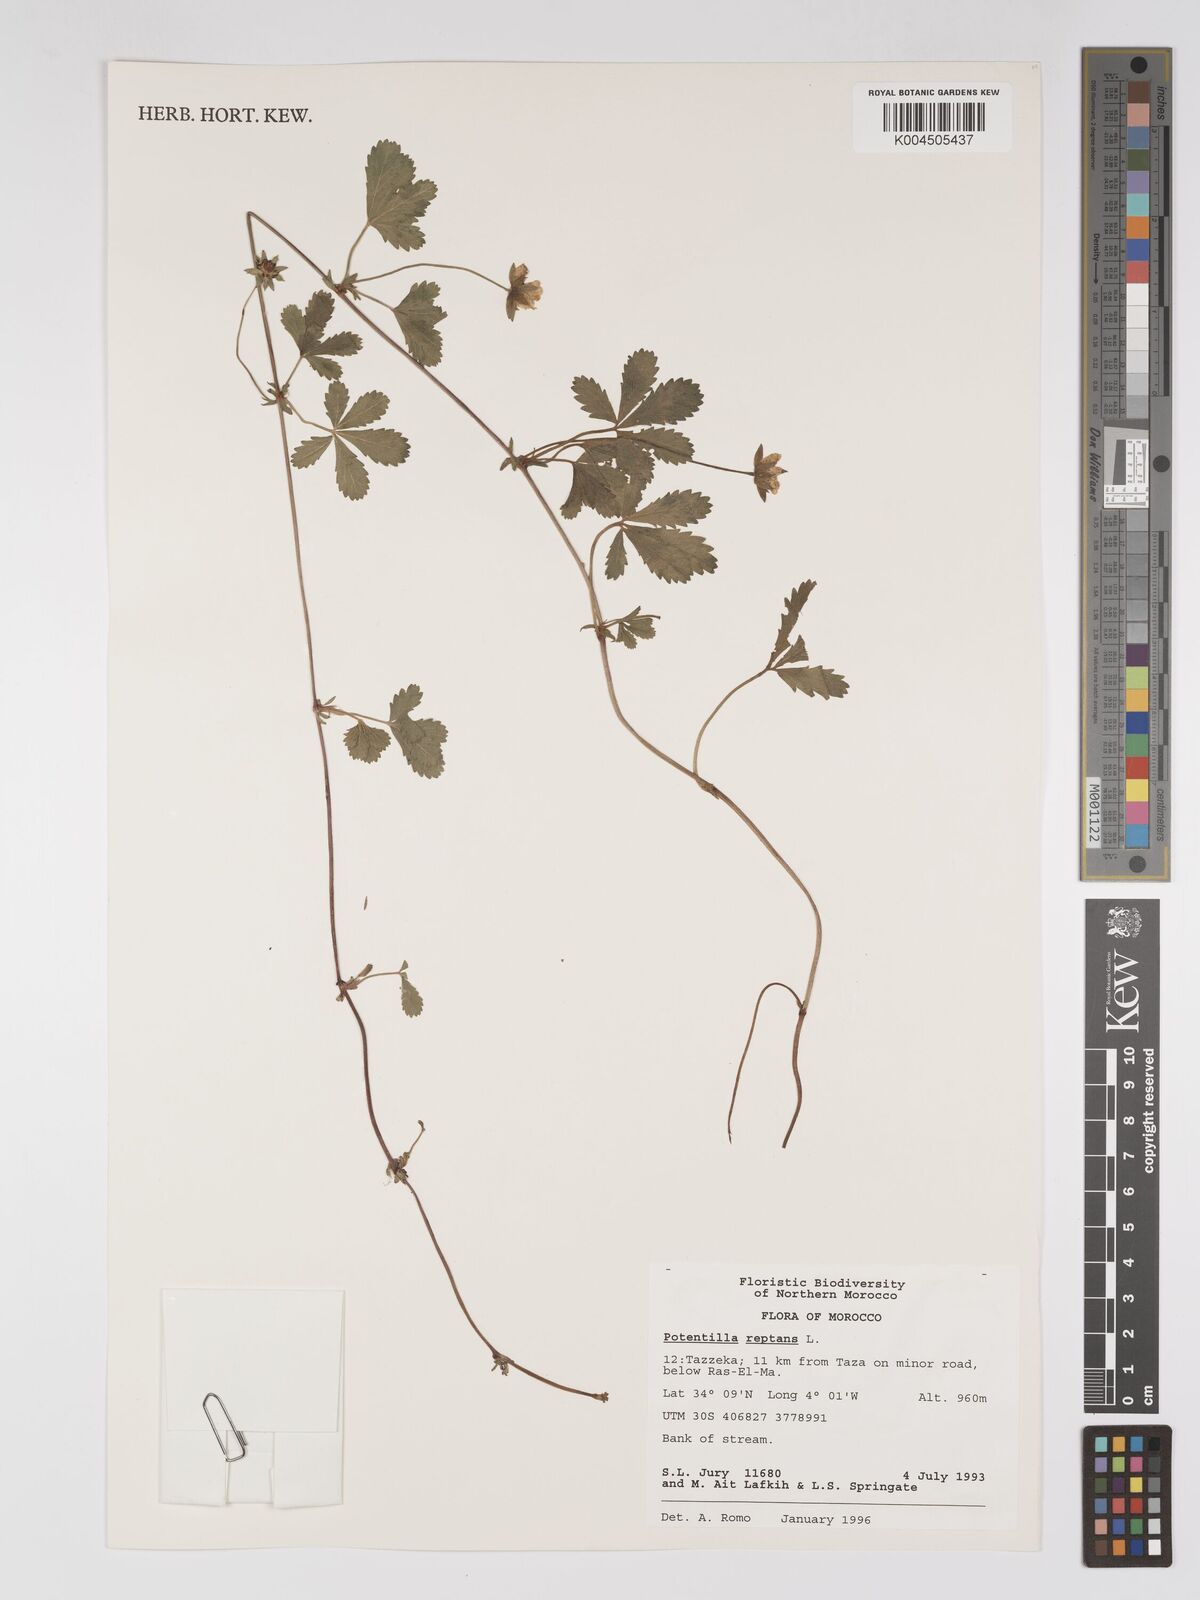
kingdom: Plantae
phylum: Tracheophyta
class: Magnoliopsida
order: Rosales
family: Rosaceae
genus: Potentilla
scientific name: Potentilla reptans
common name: Creeping cinquefoil
